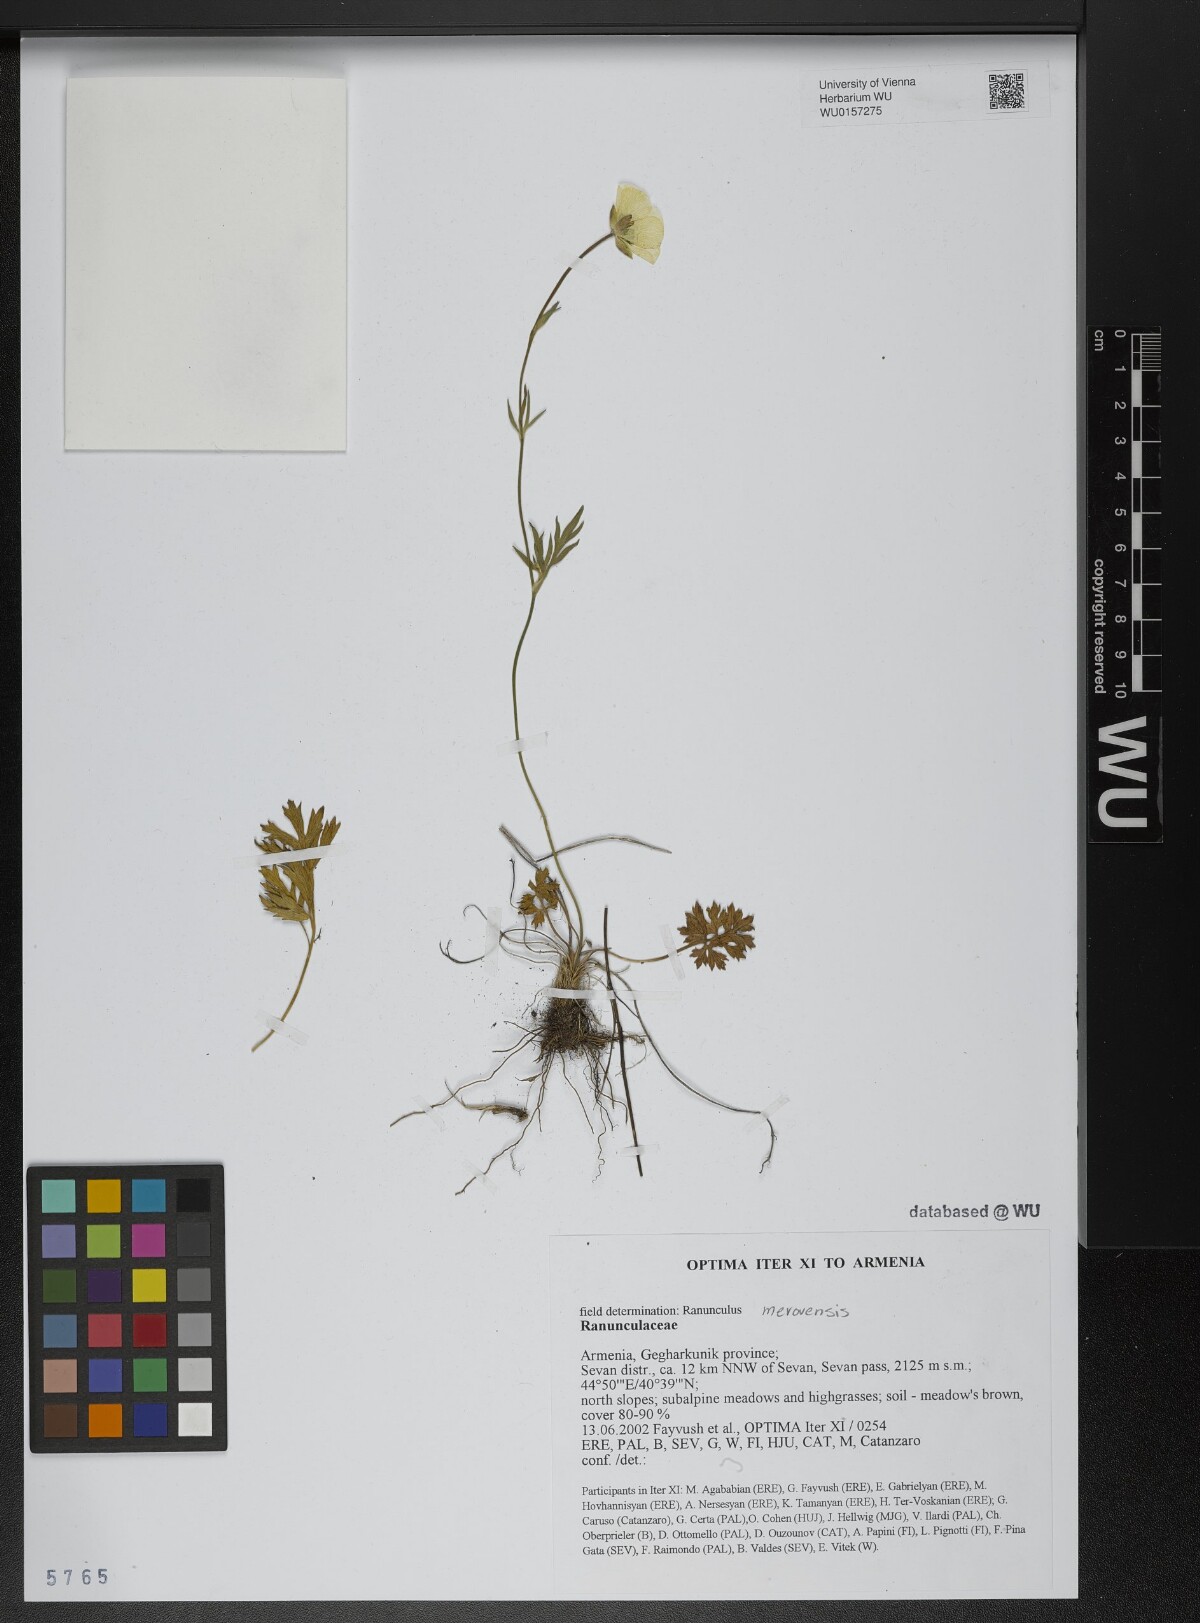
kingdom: Plantae
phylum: Tracheophyta
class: Magnoliopsida
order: Ranunculales
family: Ranunculaceae
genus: Ranunculus
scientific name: Ranunculus dissectus
